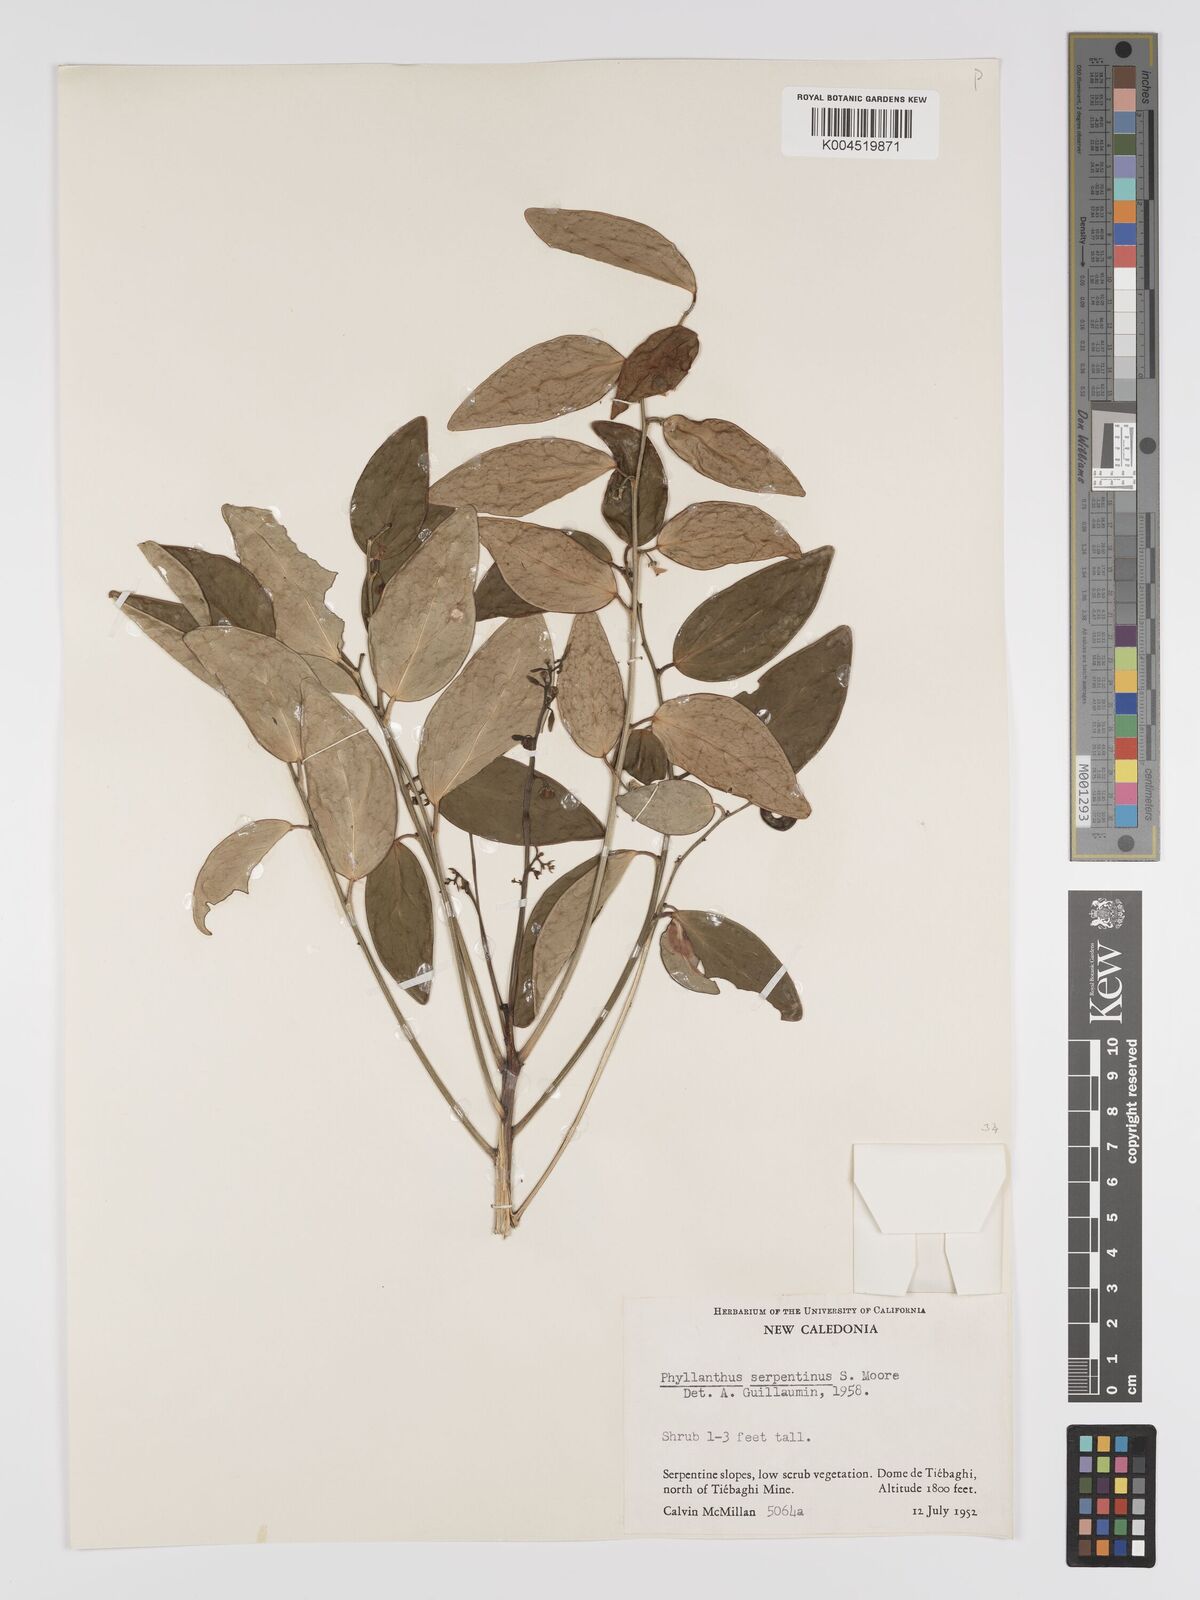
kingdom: Plantae
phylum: Tracheophyta
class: Magnoliopsida
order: Malpighiales
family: Phyllanthaceae
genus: Phyllanthus
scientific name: Phyllanthus serpentinus
